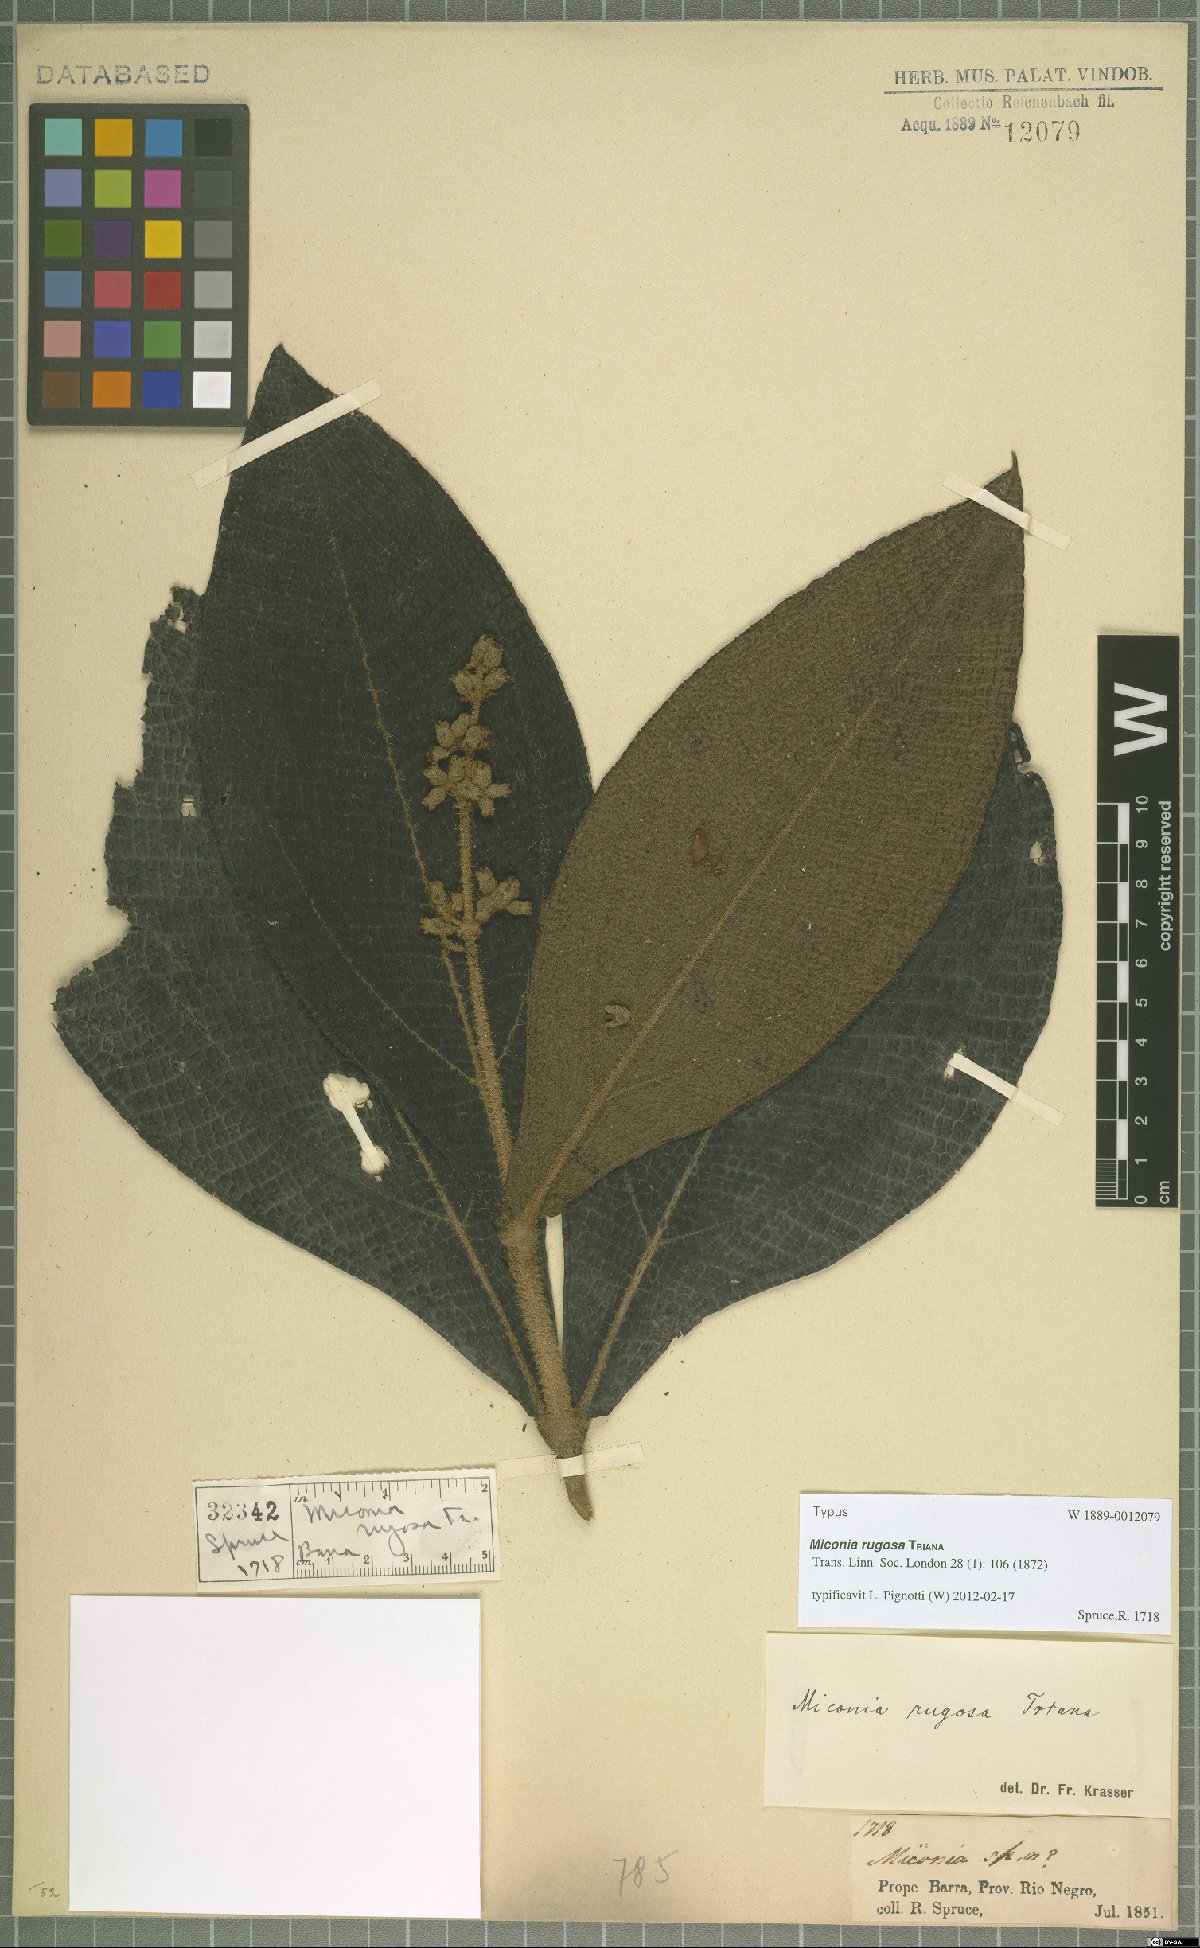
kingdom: Plantae
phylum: Tracheophyta
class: Magnoliopsida
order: Myrtales
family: Melastomataceae
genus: Miconia
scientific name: Miconia rugosa
